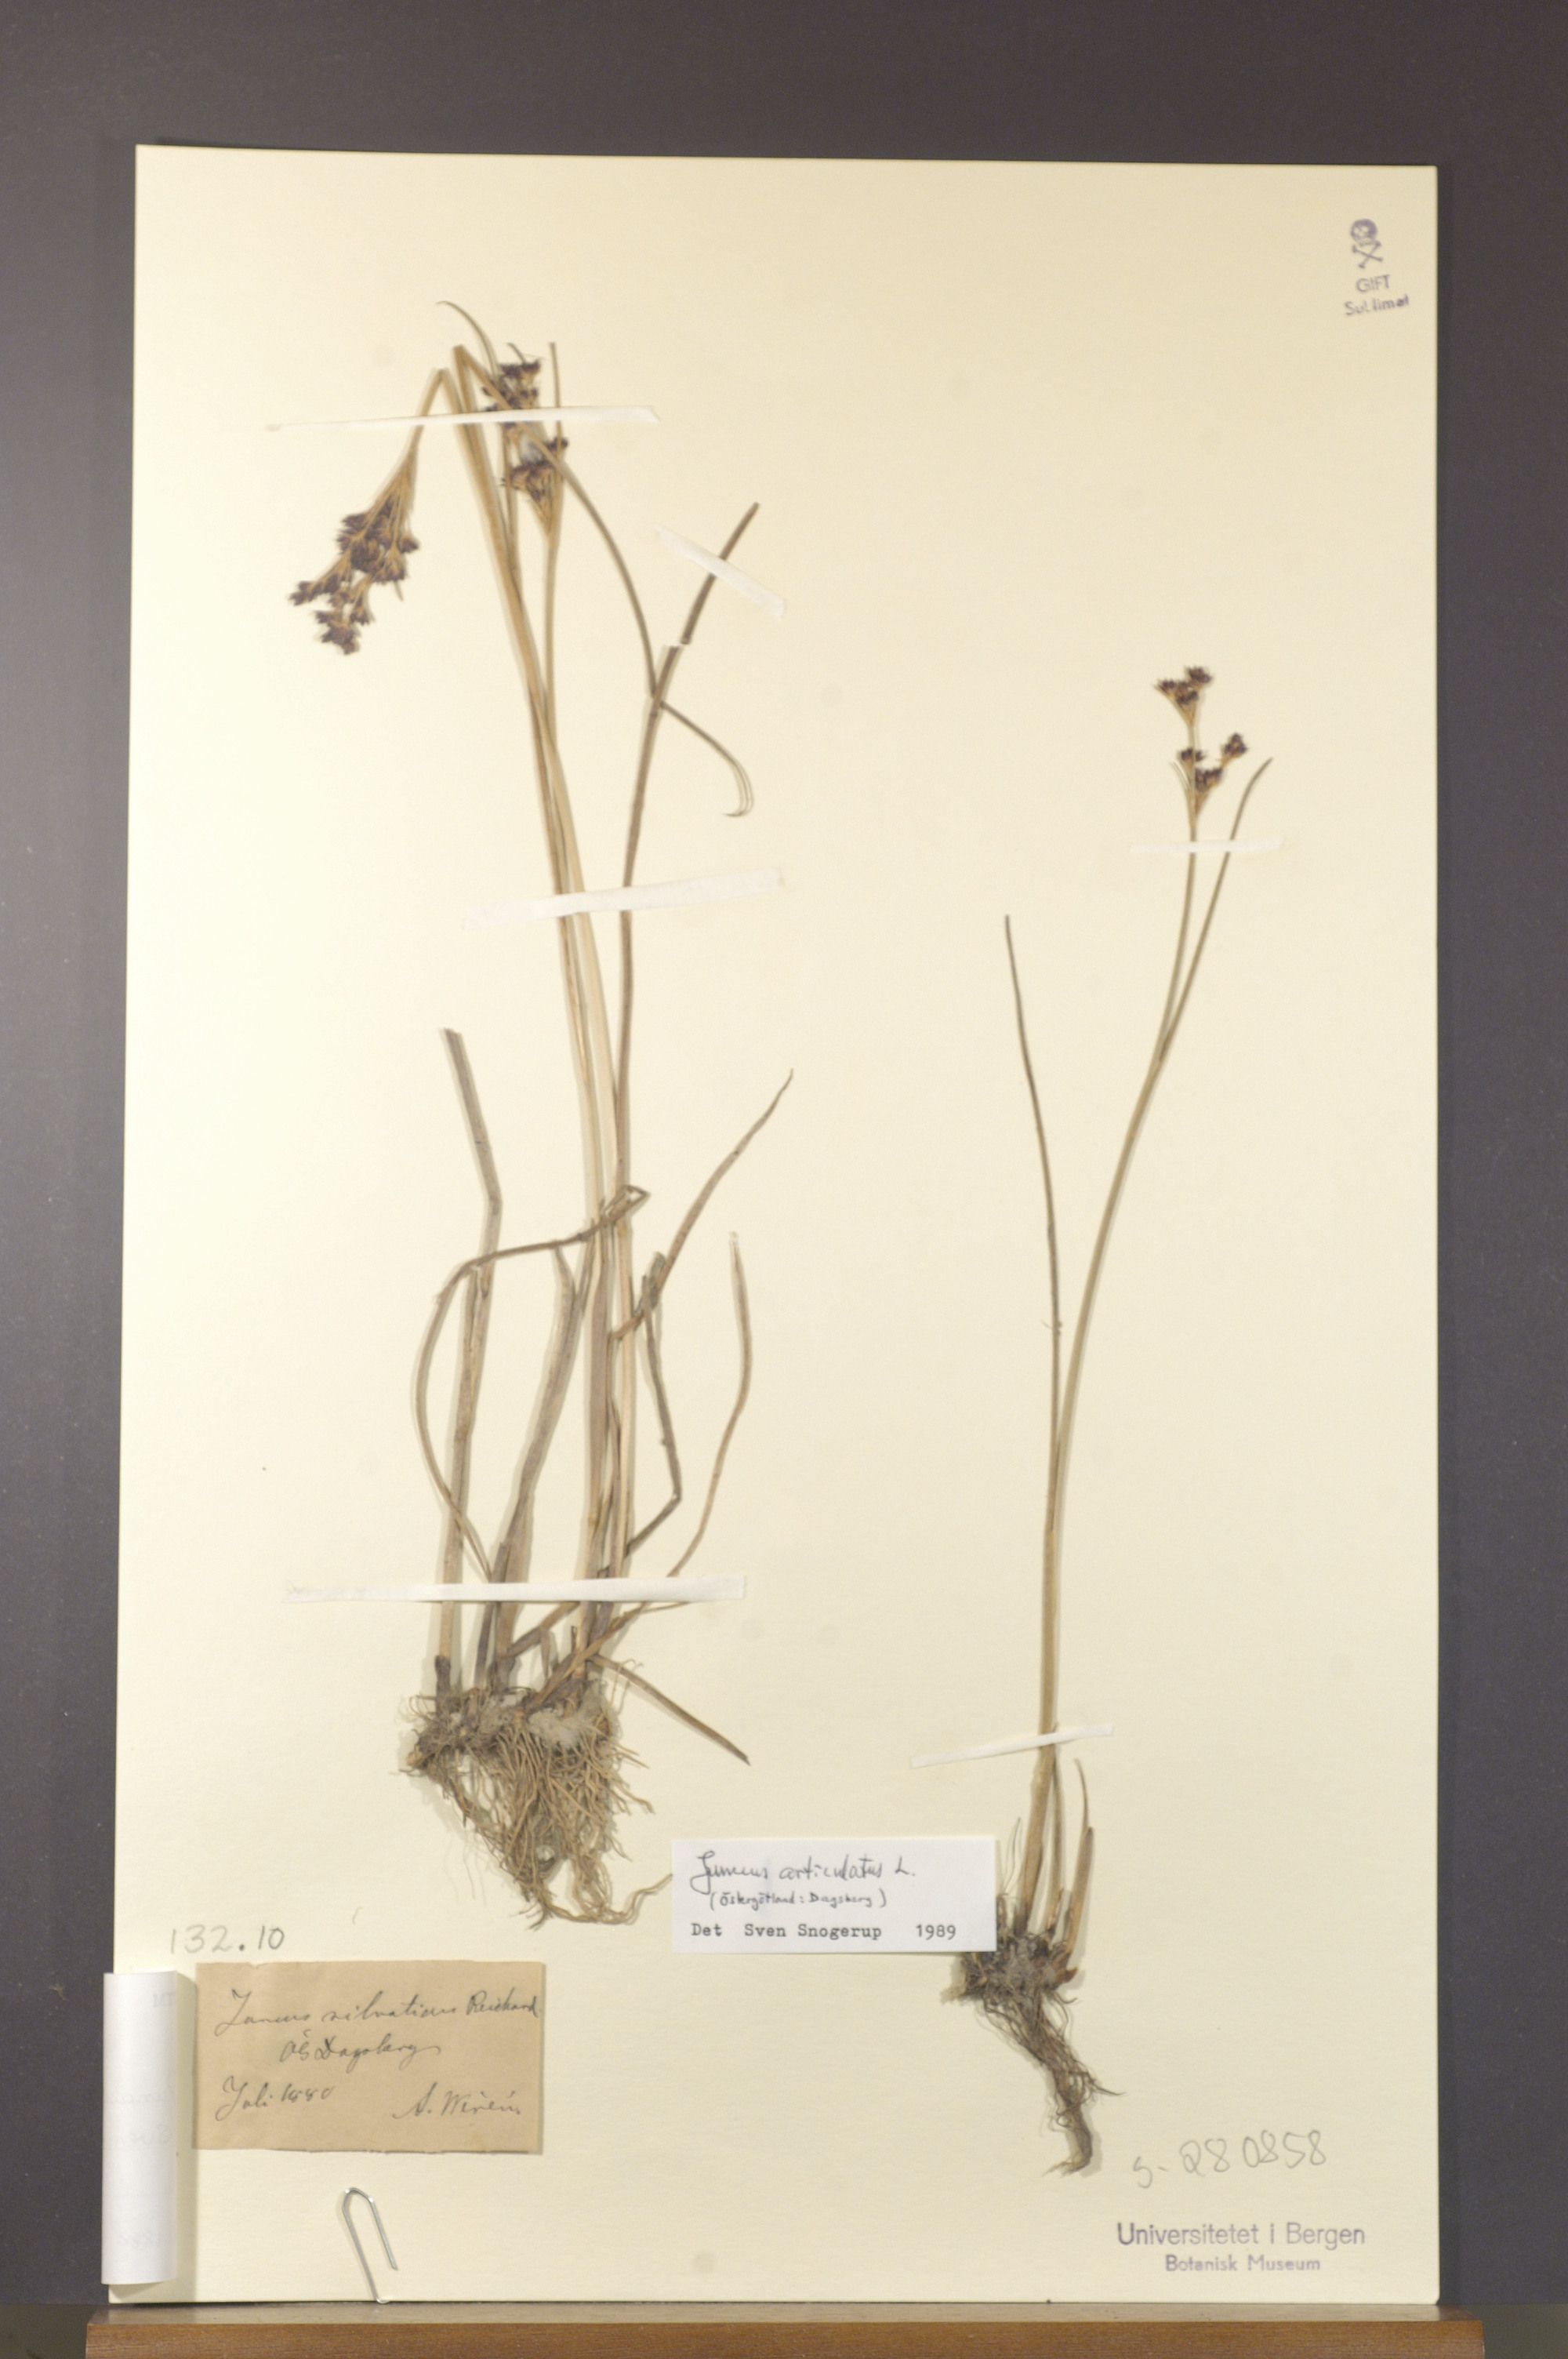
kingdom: Plantae
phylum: Tracheophyta
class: Liliopsida
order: Poales
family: Juncaceae
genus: Juncus
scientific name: Juncus articulatus
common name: Jointed rush
